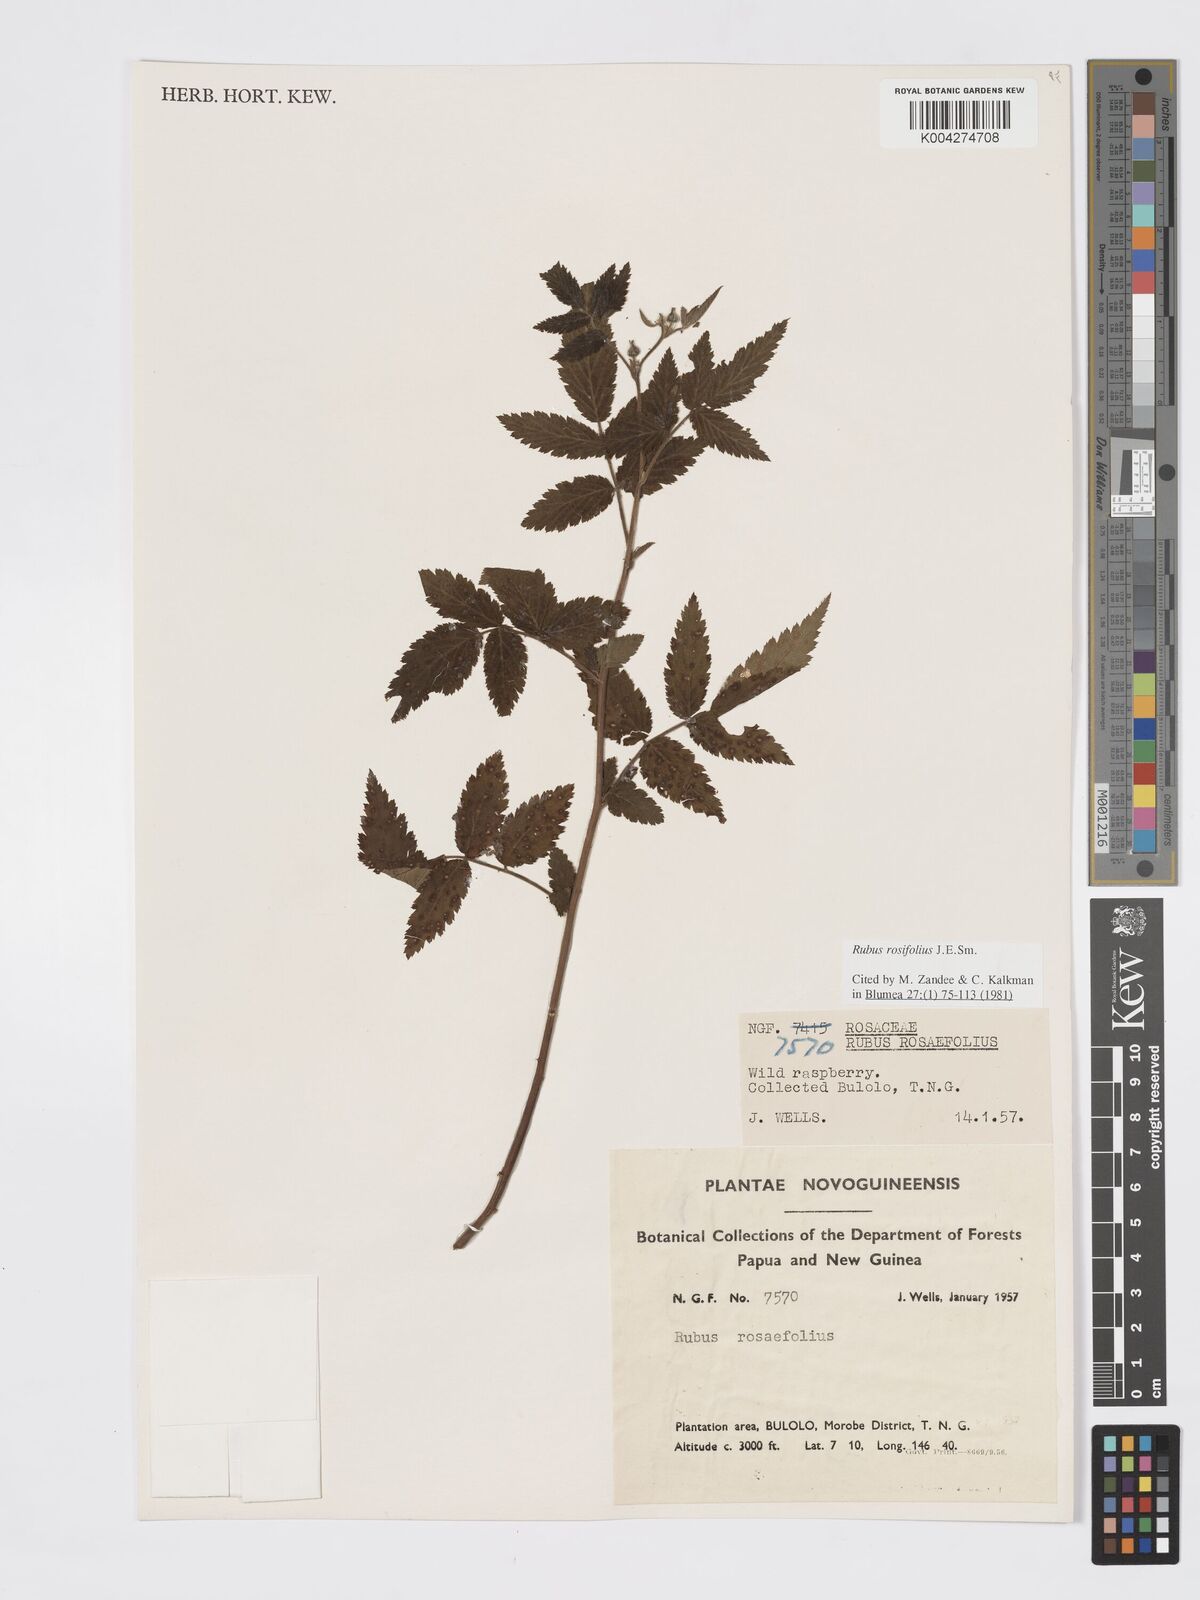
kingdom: Plantae
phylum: Tracheophyta
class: Magnoliopsida
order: Rosales
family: Rosaceae
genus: Rubus
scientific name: Rubus
